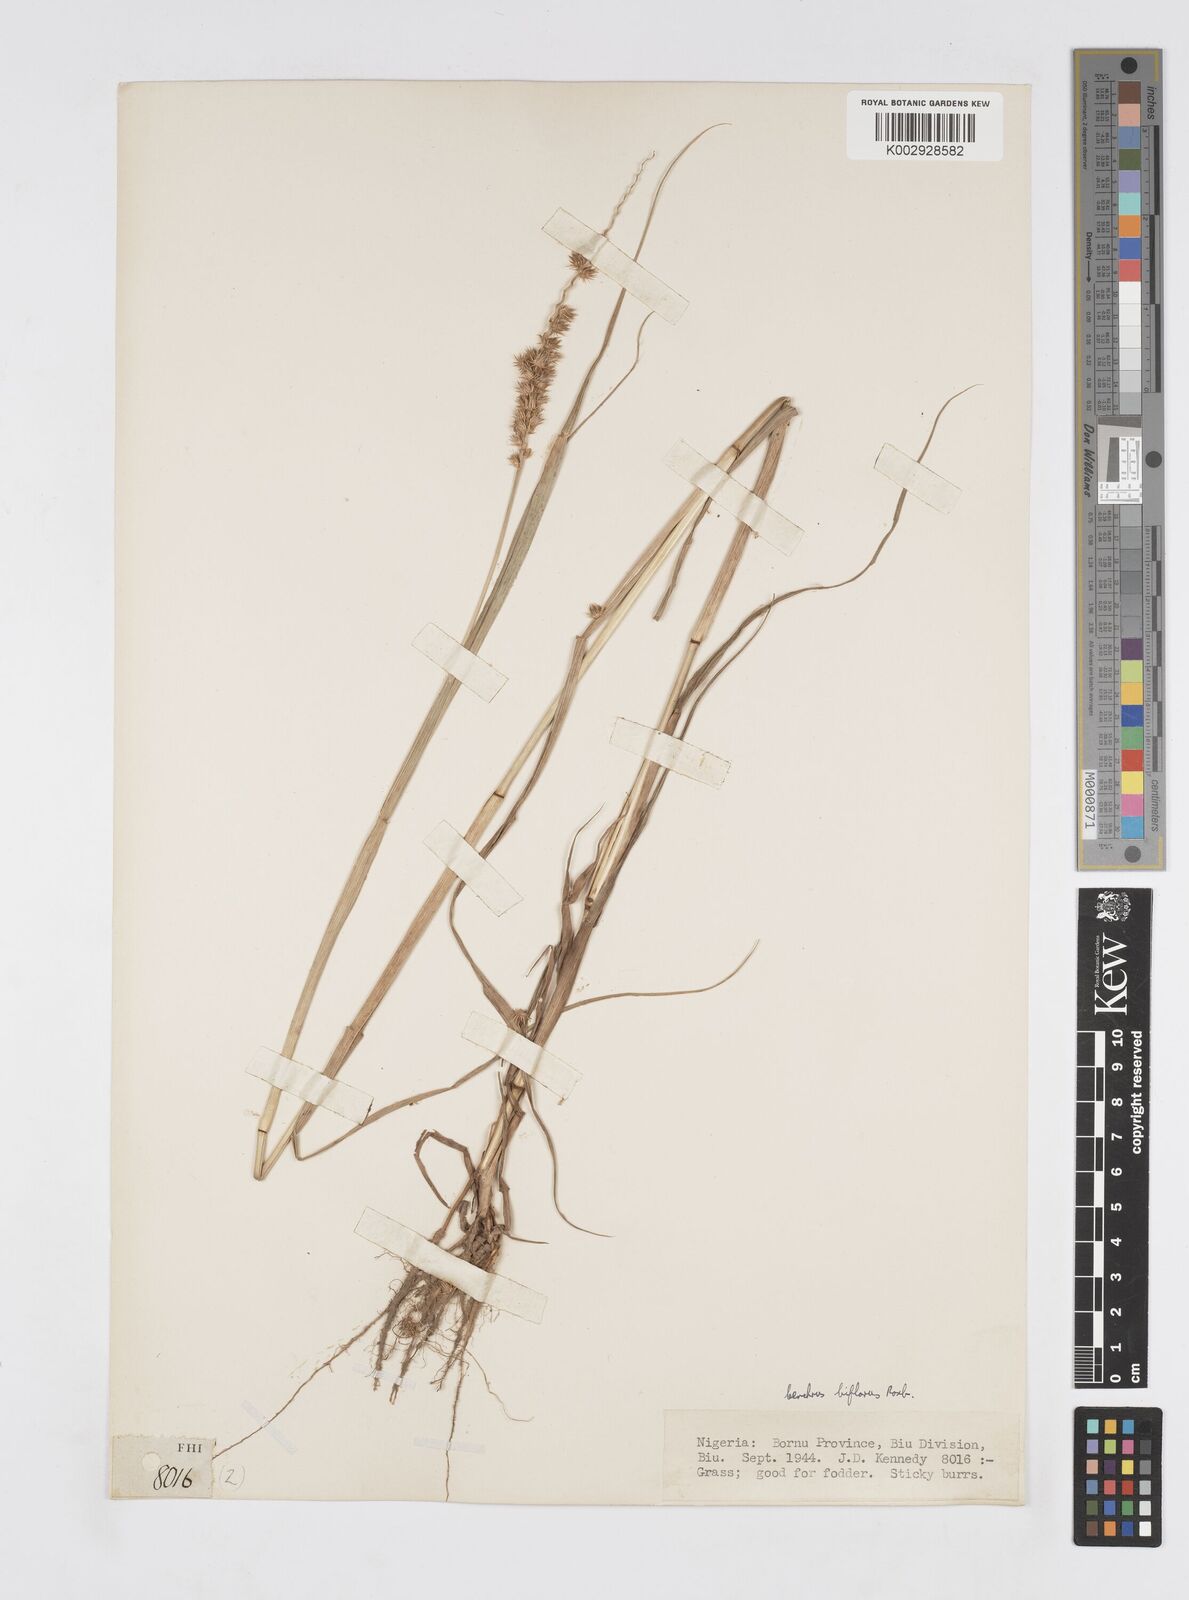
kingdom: Plantae
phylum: Tracheophyta
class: Liliopsida
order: Poales
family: Poaceae
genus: Cenchrus
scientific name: Cenchrus biflorus
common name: Indian sandbur
